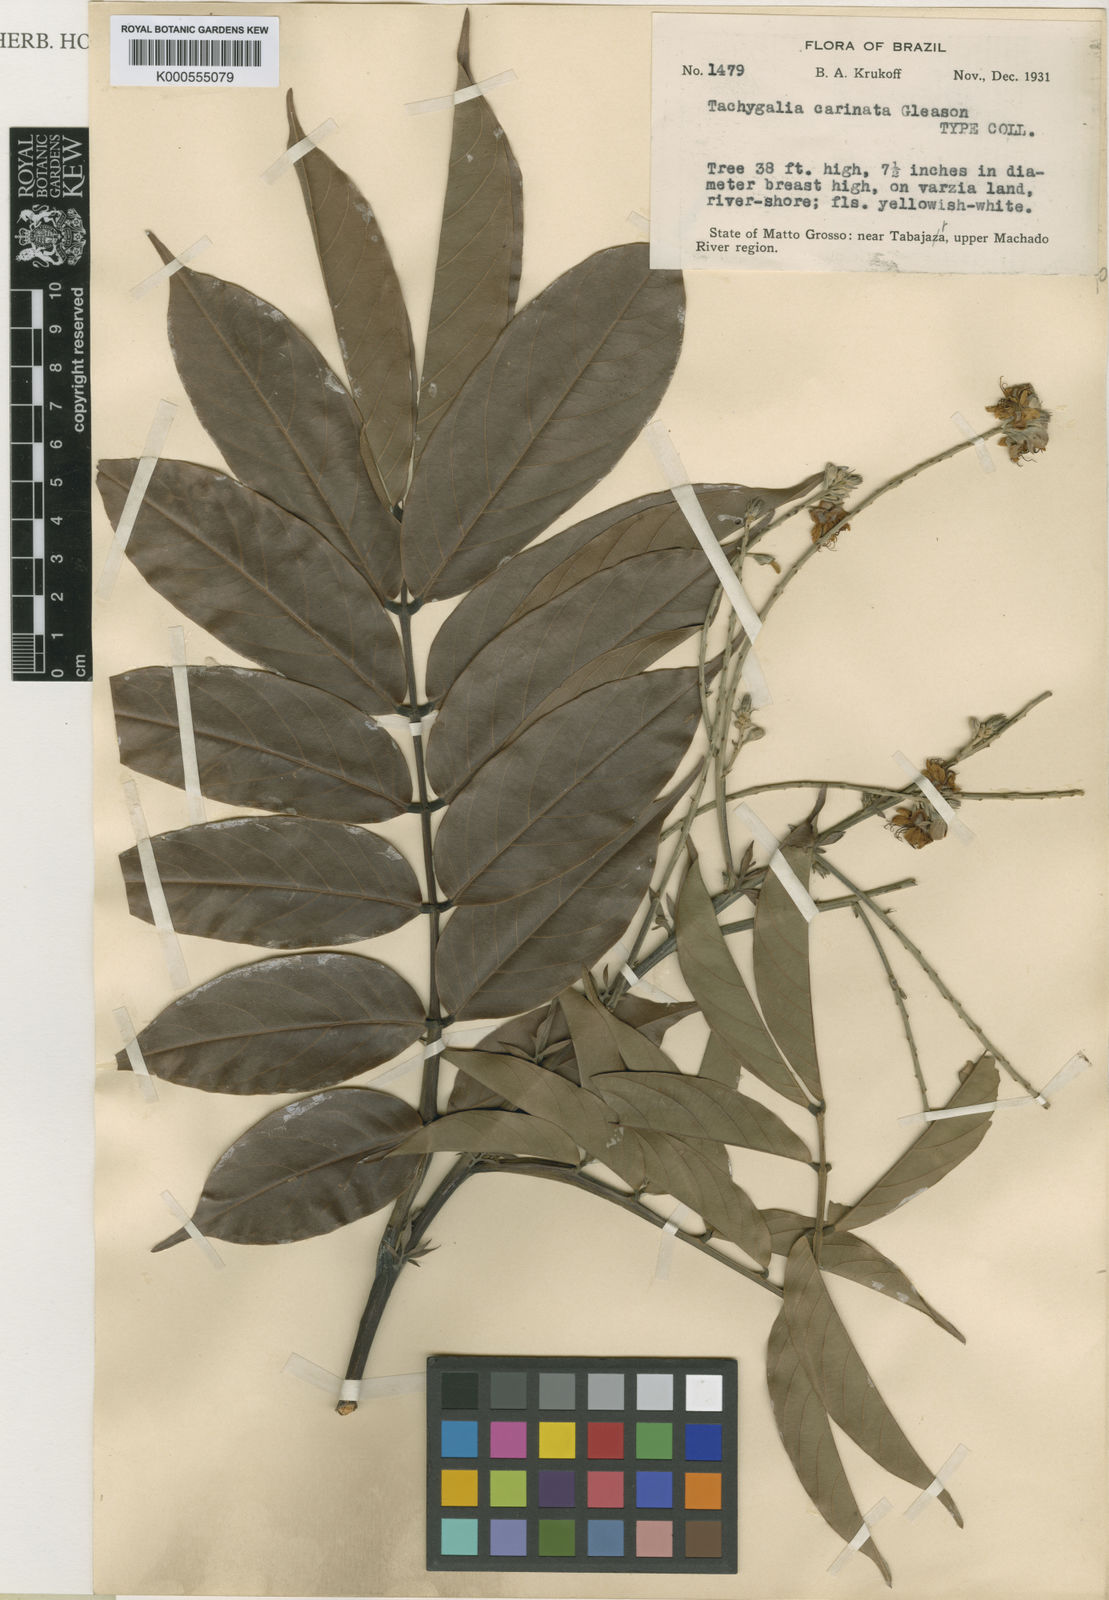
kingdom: Plantae
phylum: Tracheophyta
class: Magnoliopsida
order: Fabales
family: Fabaceae
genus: Tachigali
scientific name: Tachigali paniculata
